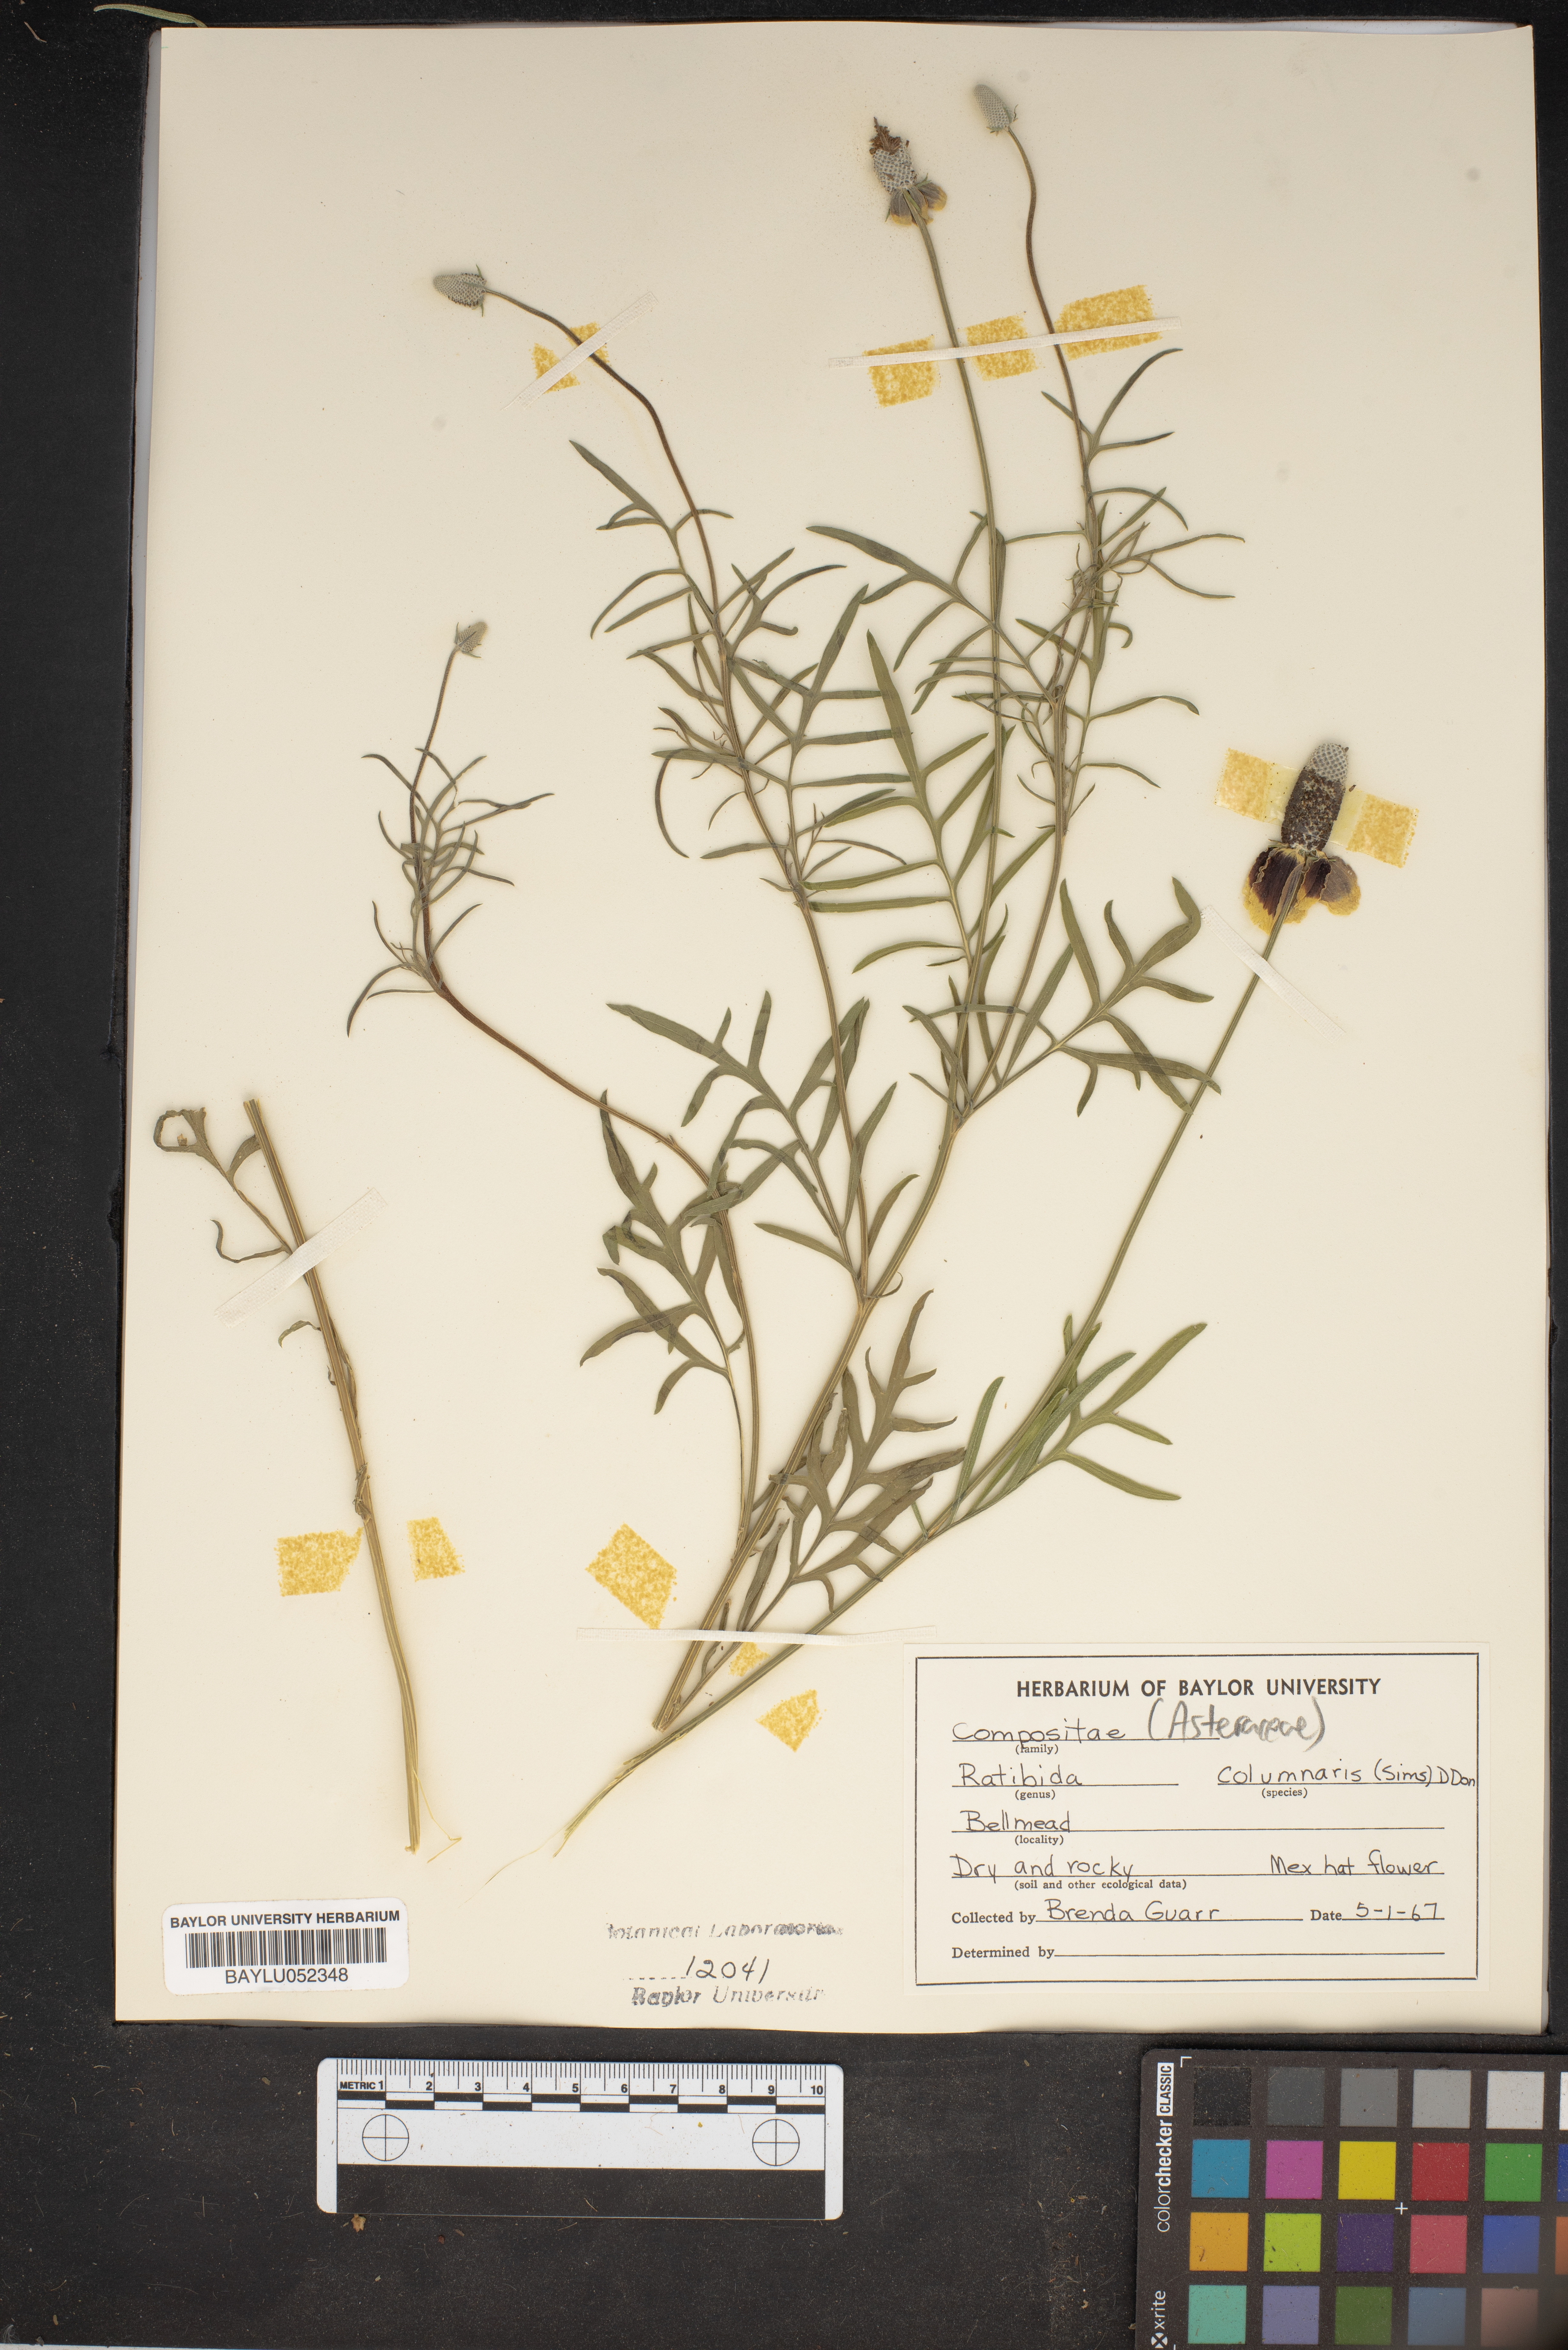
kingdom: Plantae
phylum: Tracheophyta
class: Magnoliopsida
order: Asterales
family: Asteraceae
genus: Ratibida
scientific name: Ratibida columnifera
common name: Prairie coneflower
